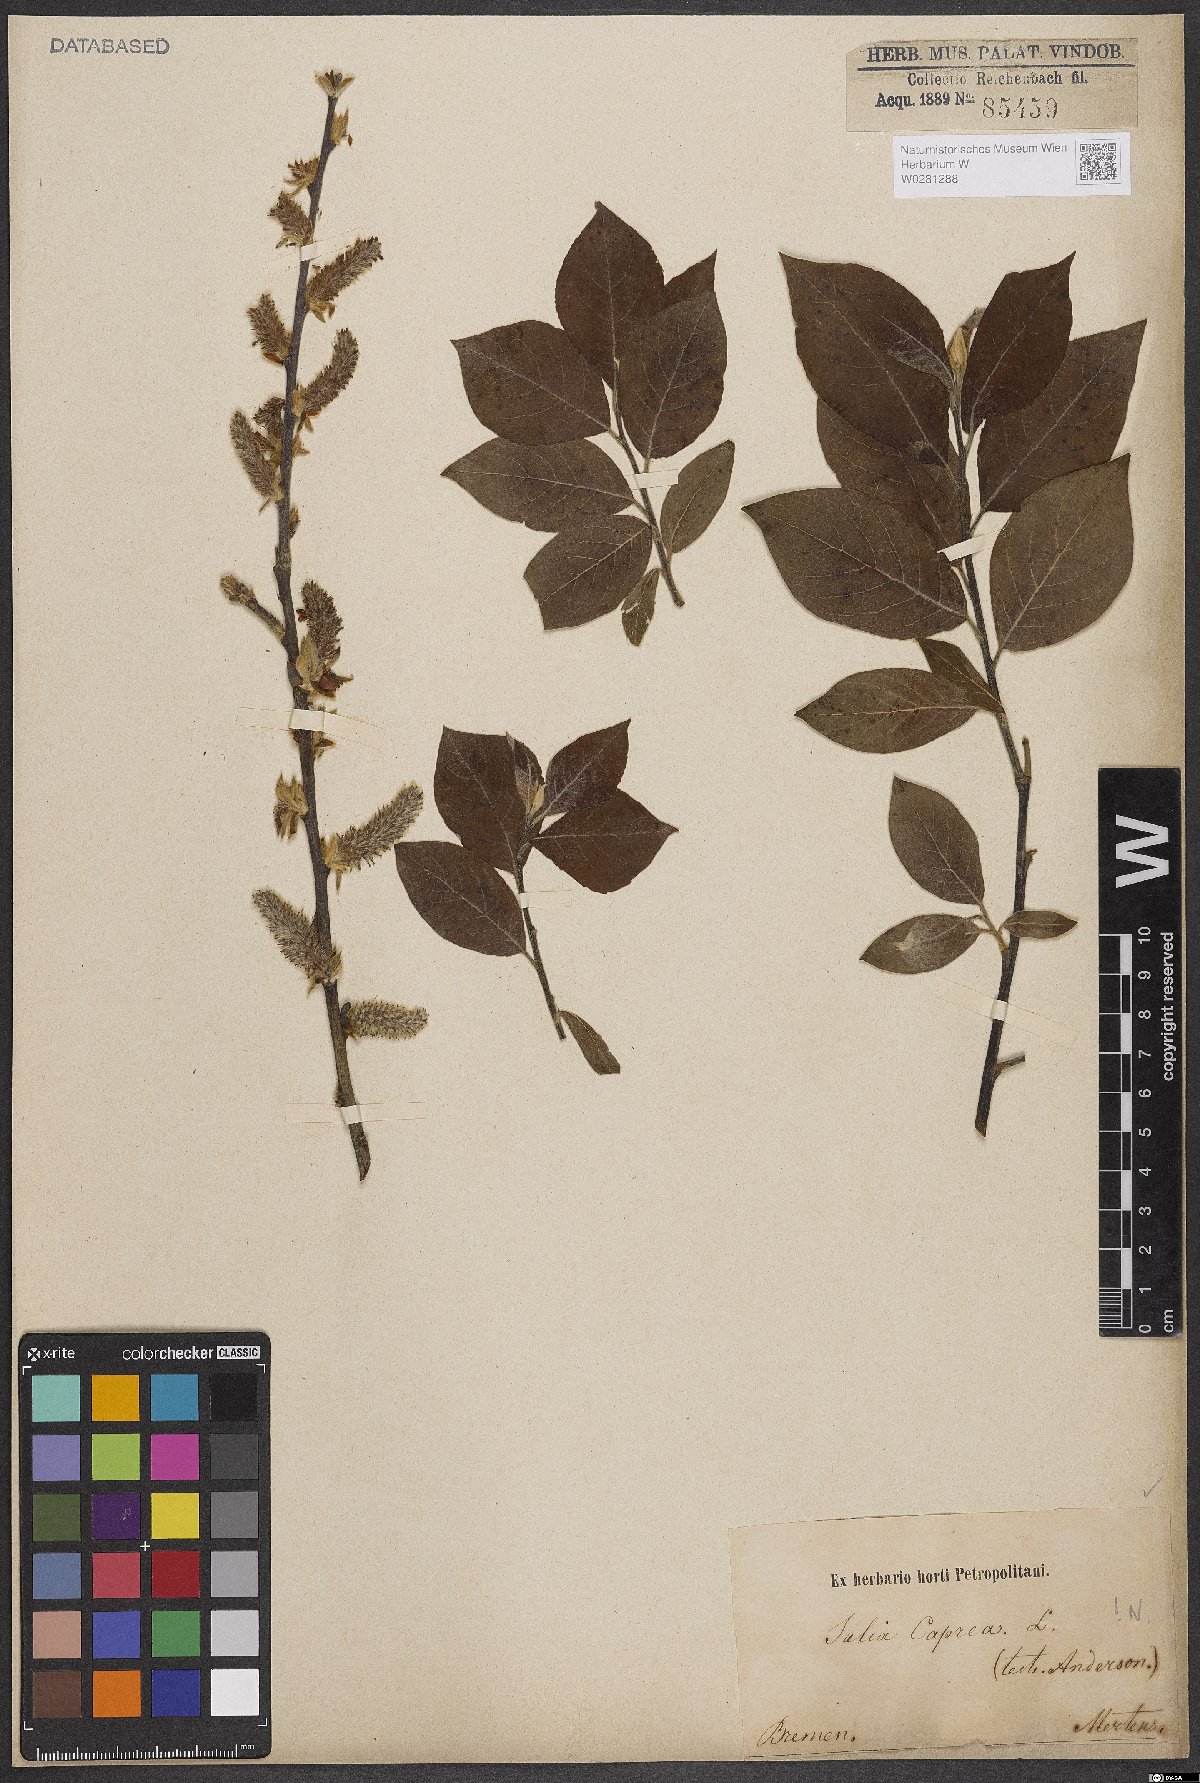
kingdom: Plantae
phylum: Tracheophyta
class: Magnoliopsida
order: Malpighiales
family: Salicaceae
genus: Salix
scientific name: Salix caprea
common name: Goat willow
